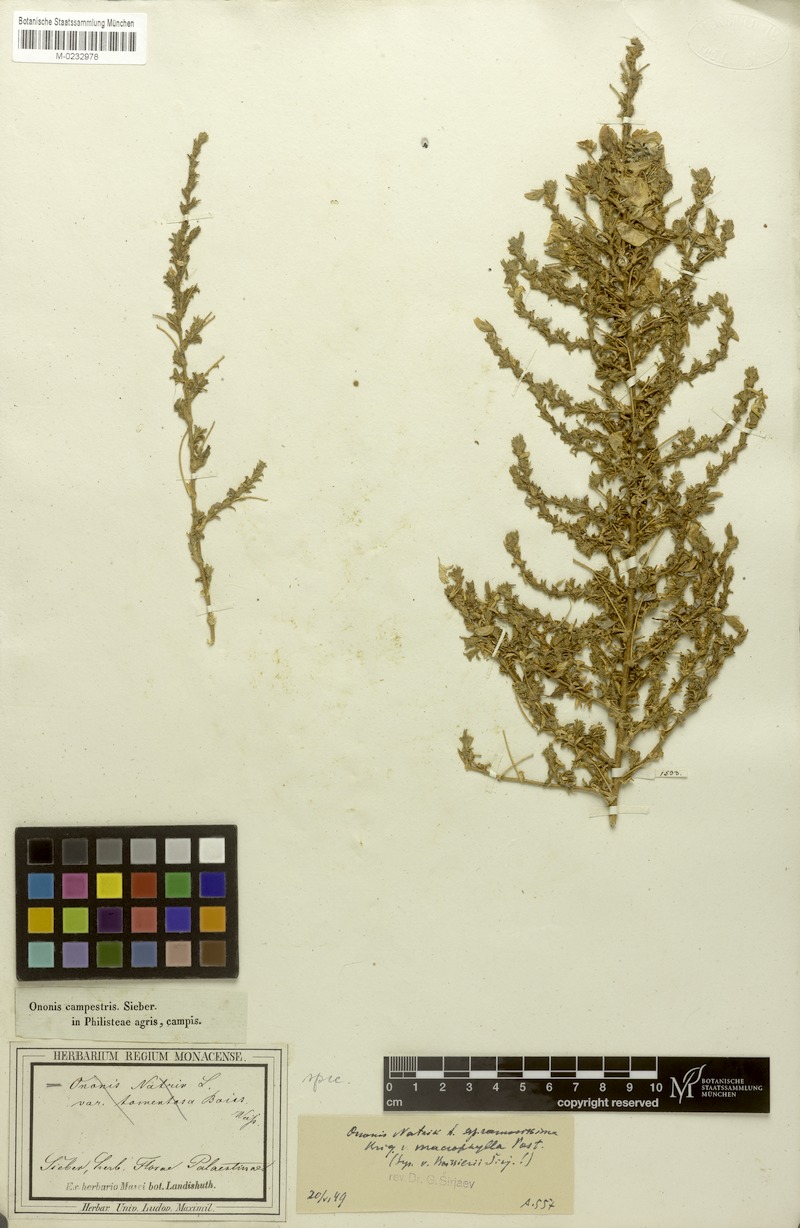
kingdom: Plantae
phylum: Tracheophyta
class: Magnoliopsida
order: Fabales
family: Fabaceae
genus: Ononis
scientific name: Ononis ramosissima
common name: Bush restharrow
